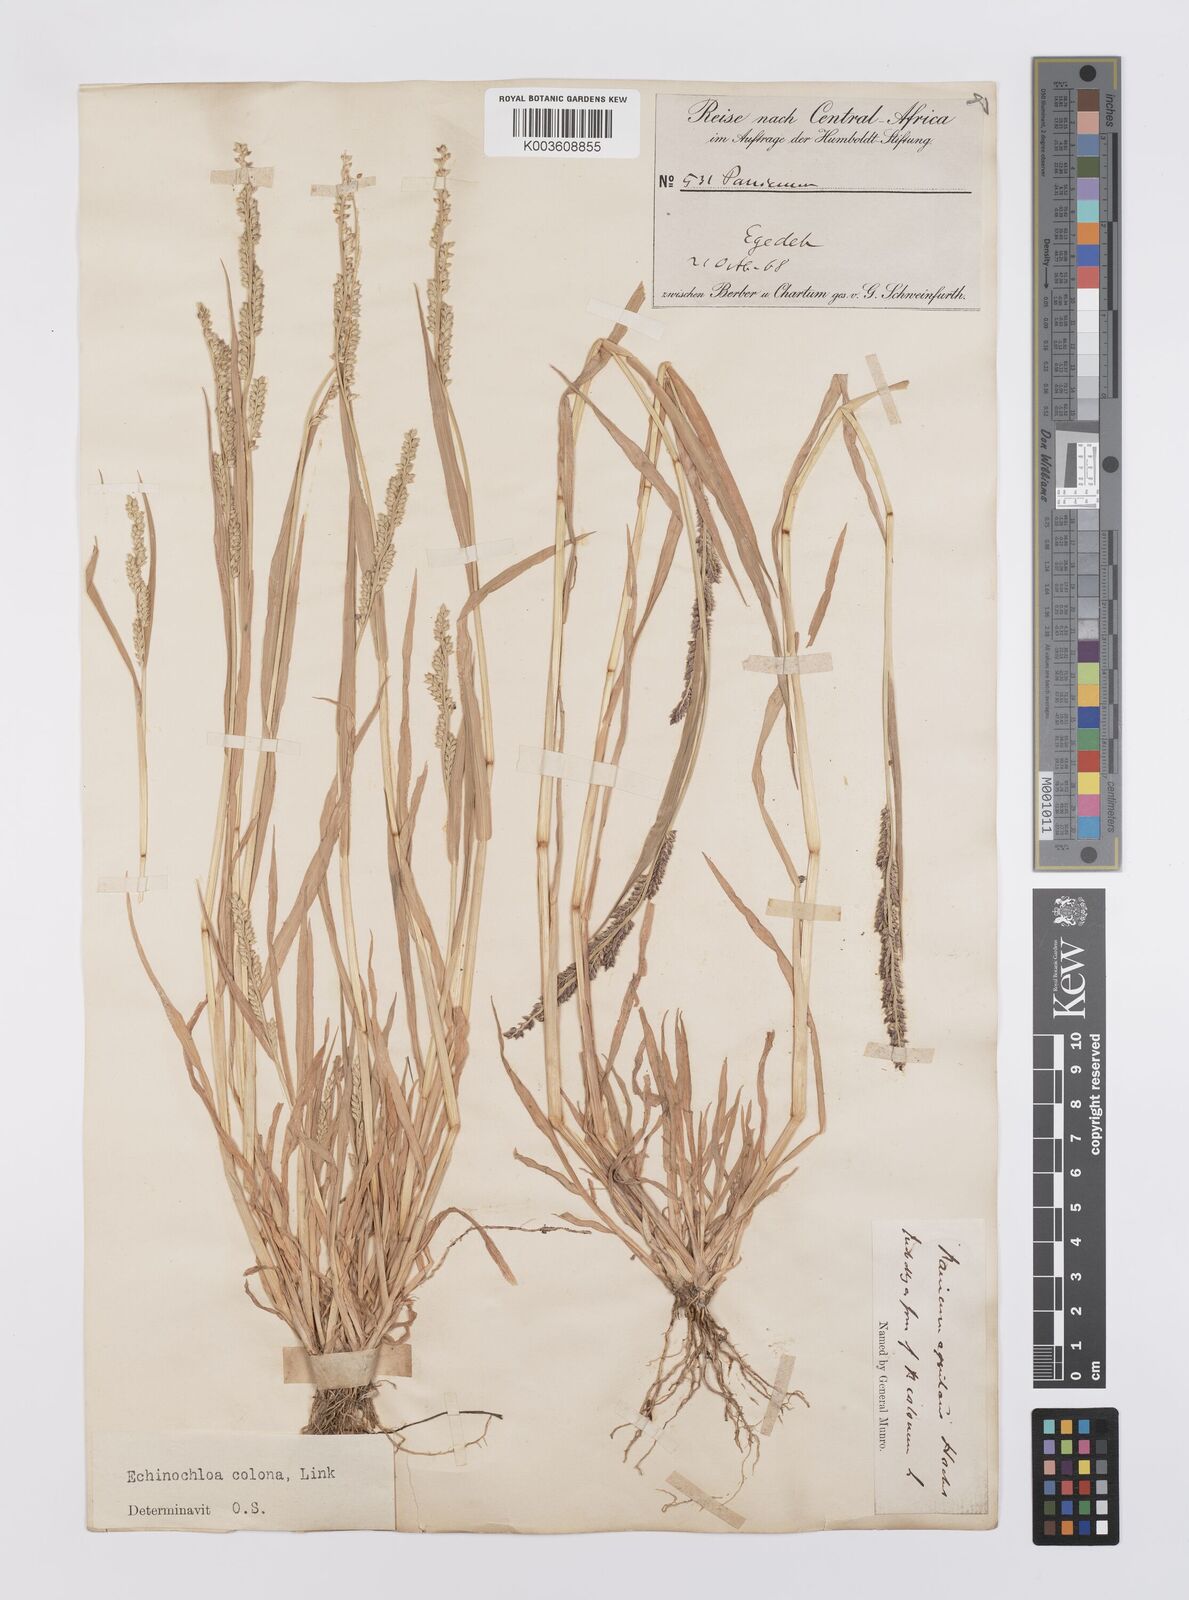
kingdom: Plantae
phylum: Tracheophyta
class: Liliopsida
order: Poales
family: Poaceae
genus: Echinochloa
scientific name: Echinochloa colonum
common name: Jungle rice
